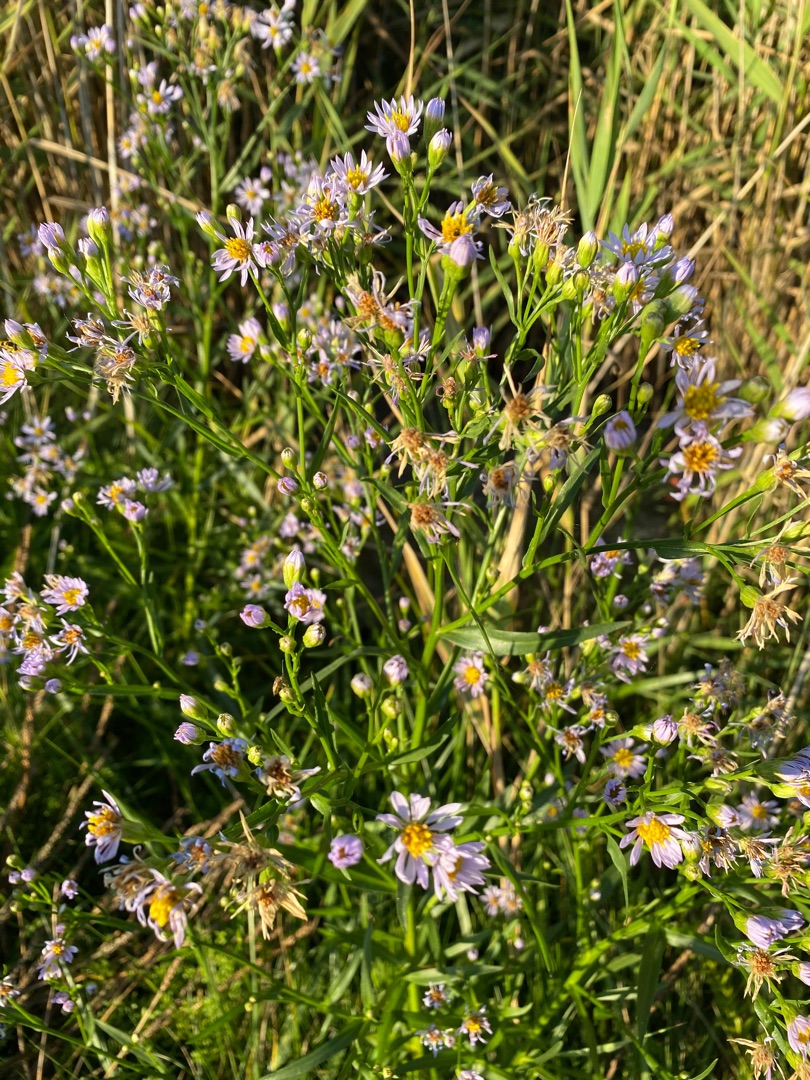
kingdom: Plantae
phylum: Tracheophyta
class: Magnoliopsida
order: Asterales
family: Asteraceae
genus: Tripolium
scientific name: Tripolium pannonicum
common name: Strandasters
